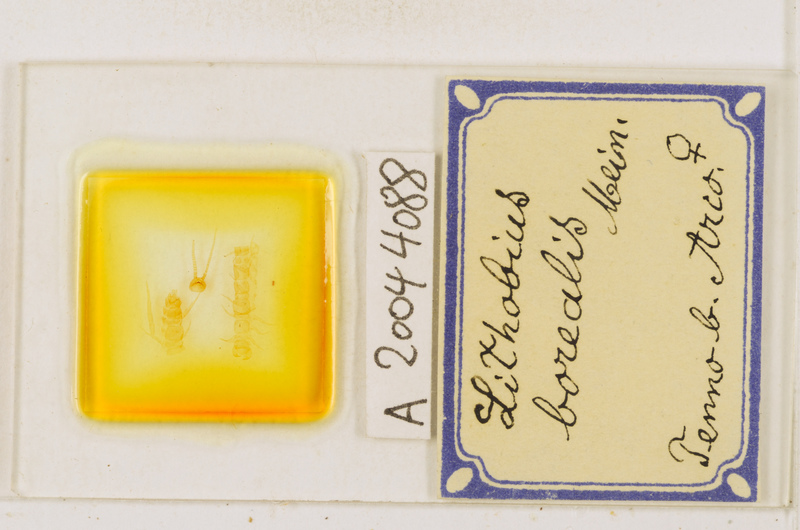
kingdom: Animalia
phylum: Arthropoda
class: Chilopoda
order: Lithobiomorpha
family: Lithobiidae
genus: Lithobius
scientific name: Lithobius borealis
